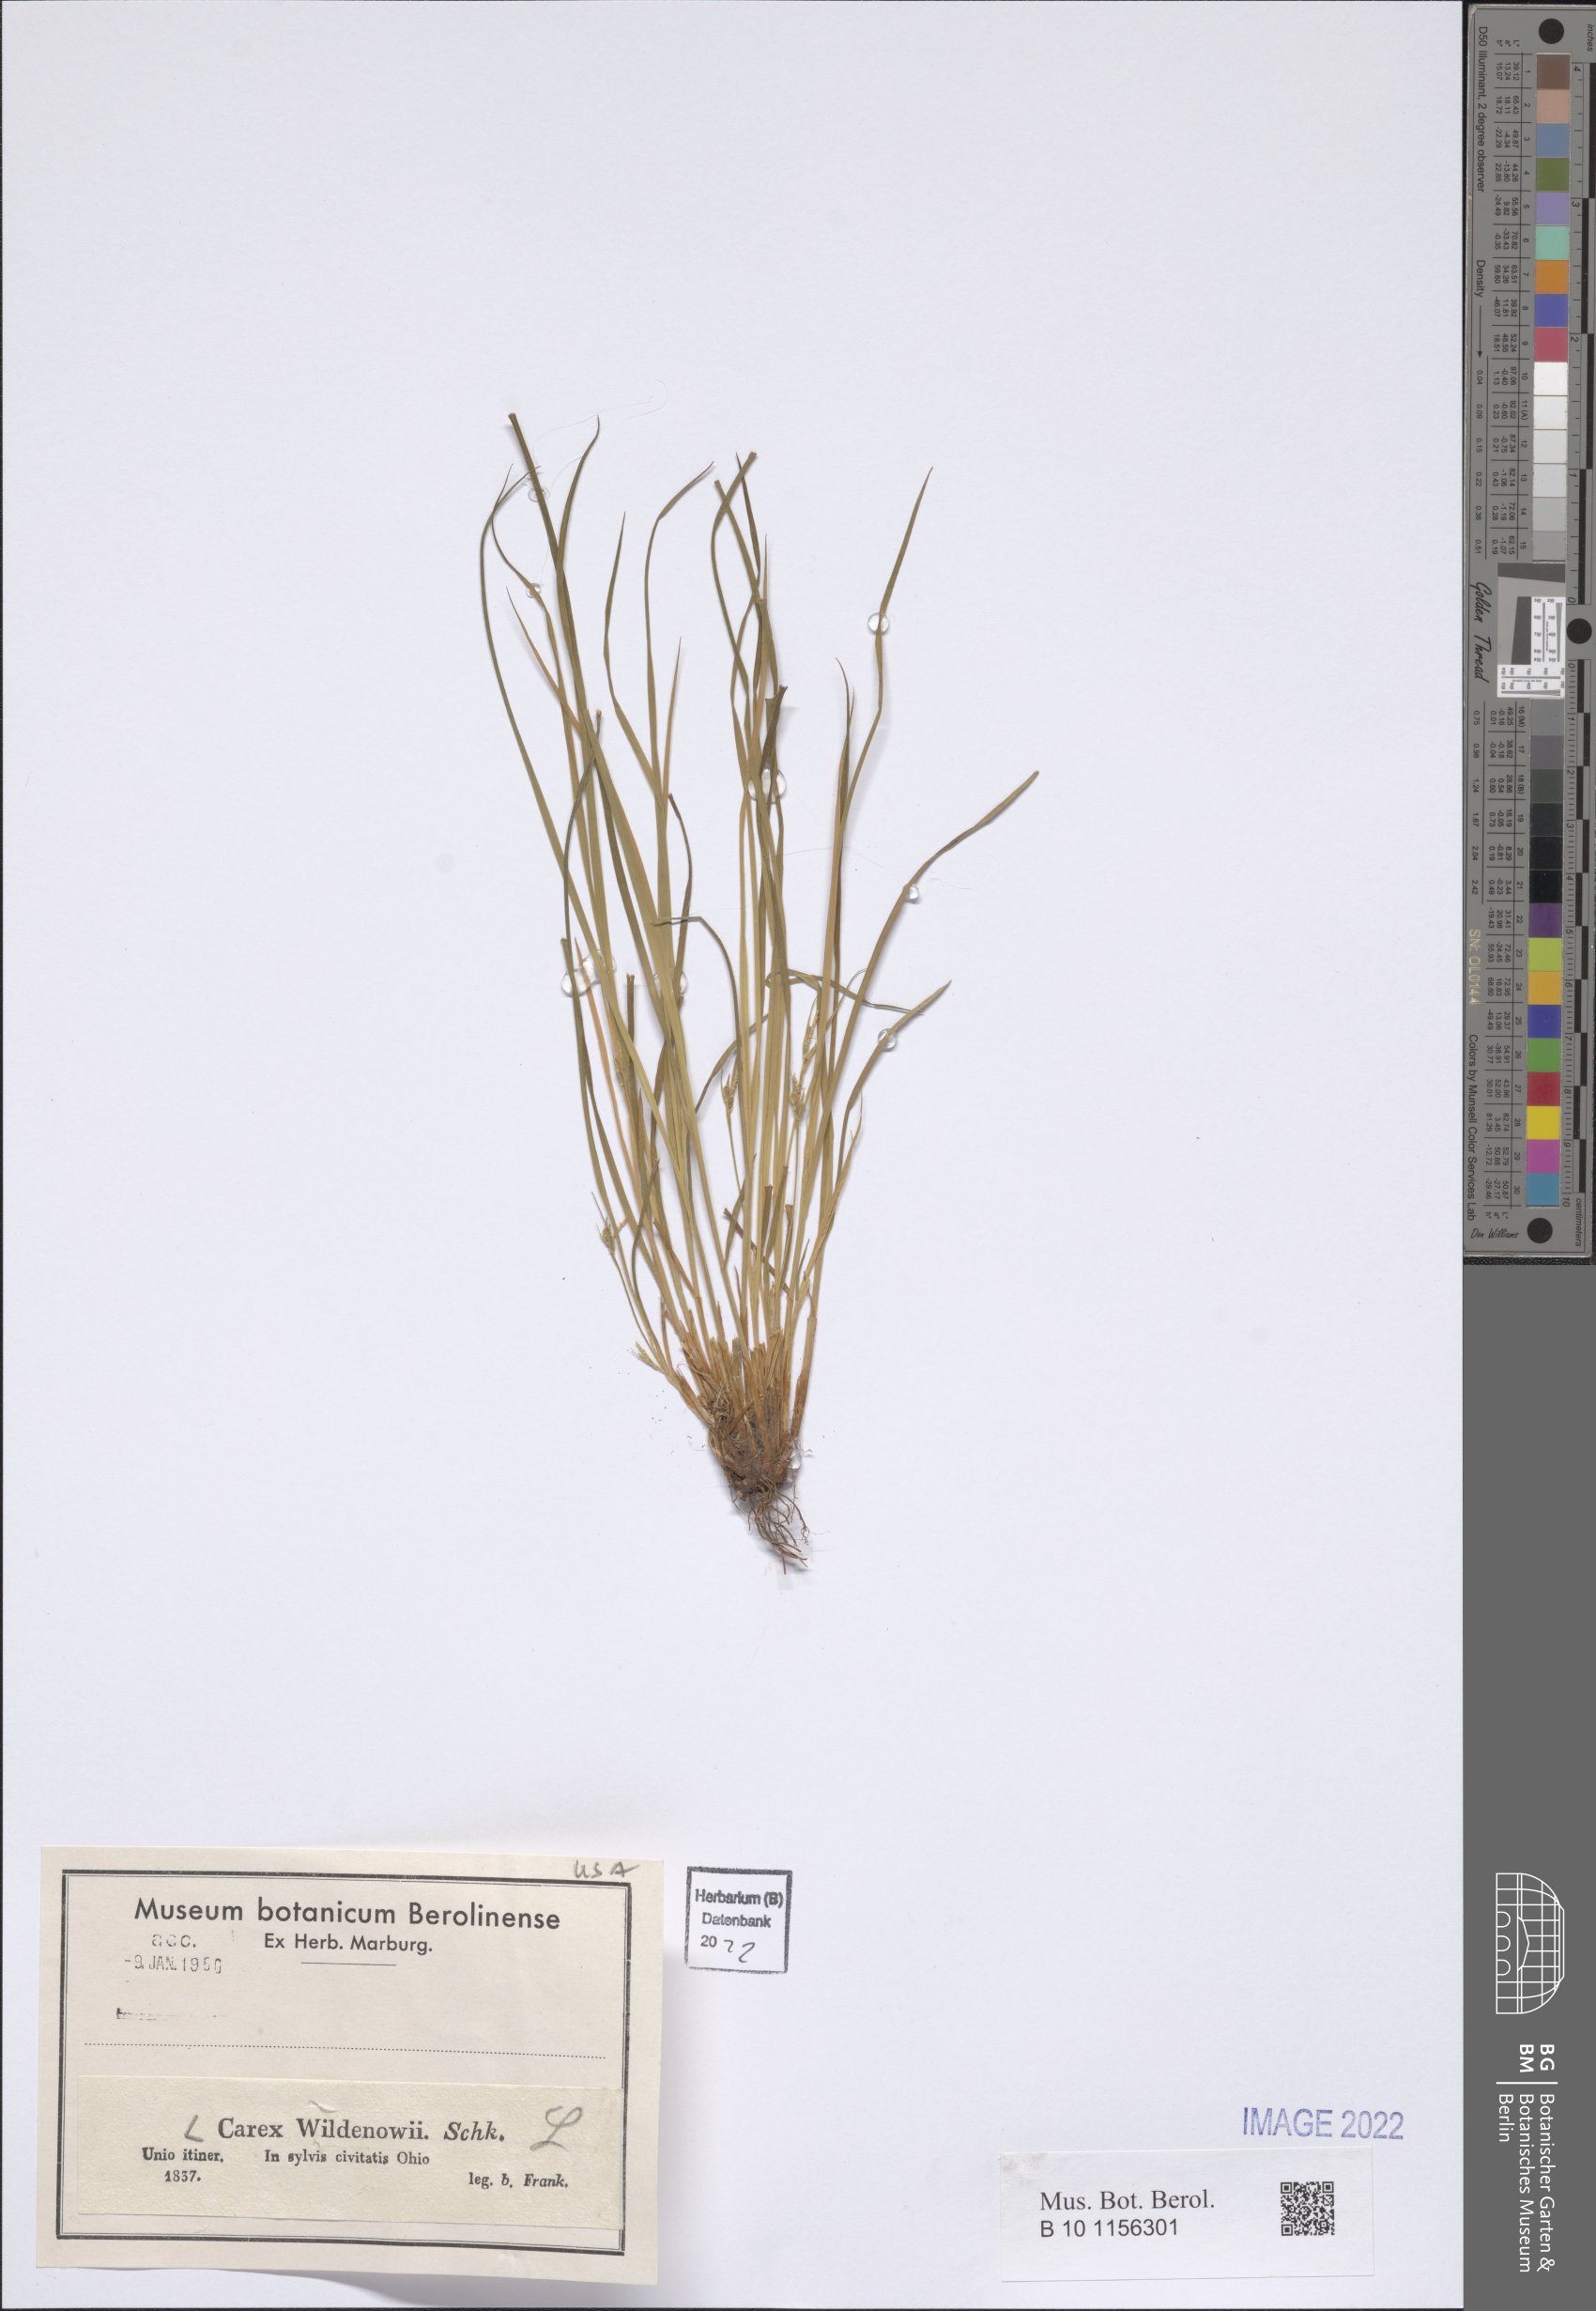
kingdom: Plantae
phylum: Tracheophyta
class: Liliopsida
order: Poales
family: Cyperaceae
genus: Carex
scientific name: Carex willdenowii
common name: Willdenow's sedge
